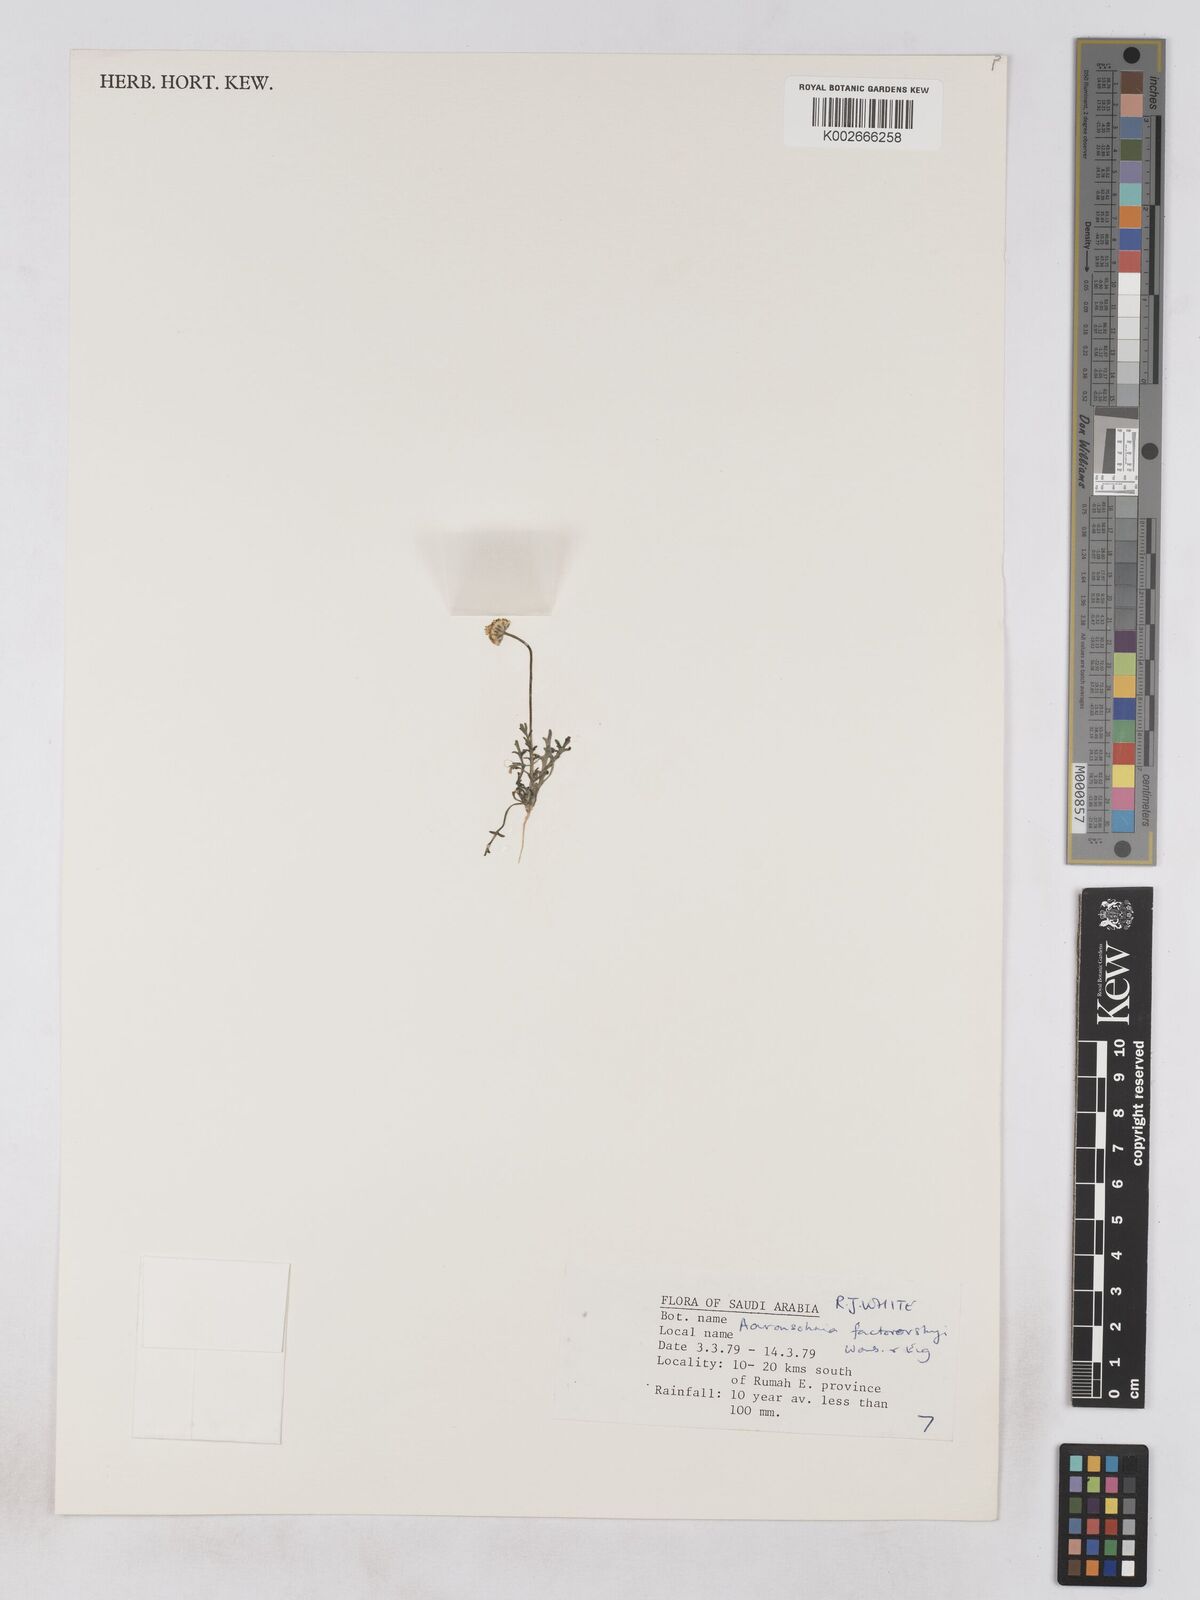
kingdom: Plantae
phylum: Tracheophyta
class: Magnoliopsida
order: Asterales
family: Asteraceae
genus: Otoglyphis
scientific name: Otoglyphis factorovskyi
